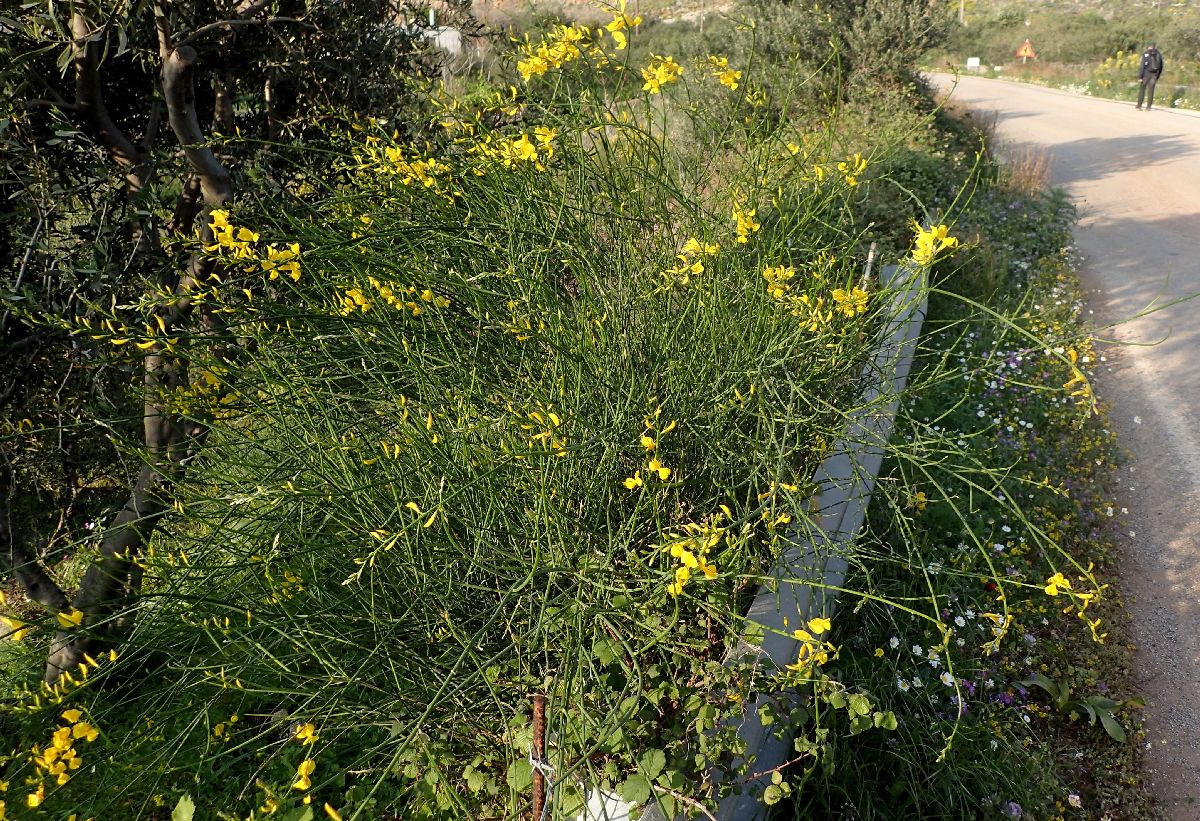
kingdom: Plantae
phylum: Tracheophyta
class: Magnoliopsida
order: Fabales
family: Fabaceae
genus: Spartium
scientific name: Spartium junceum
